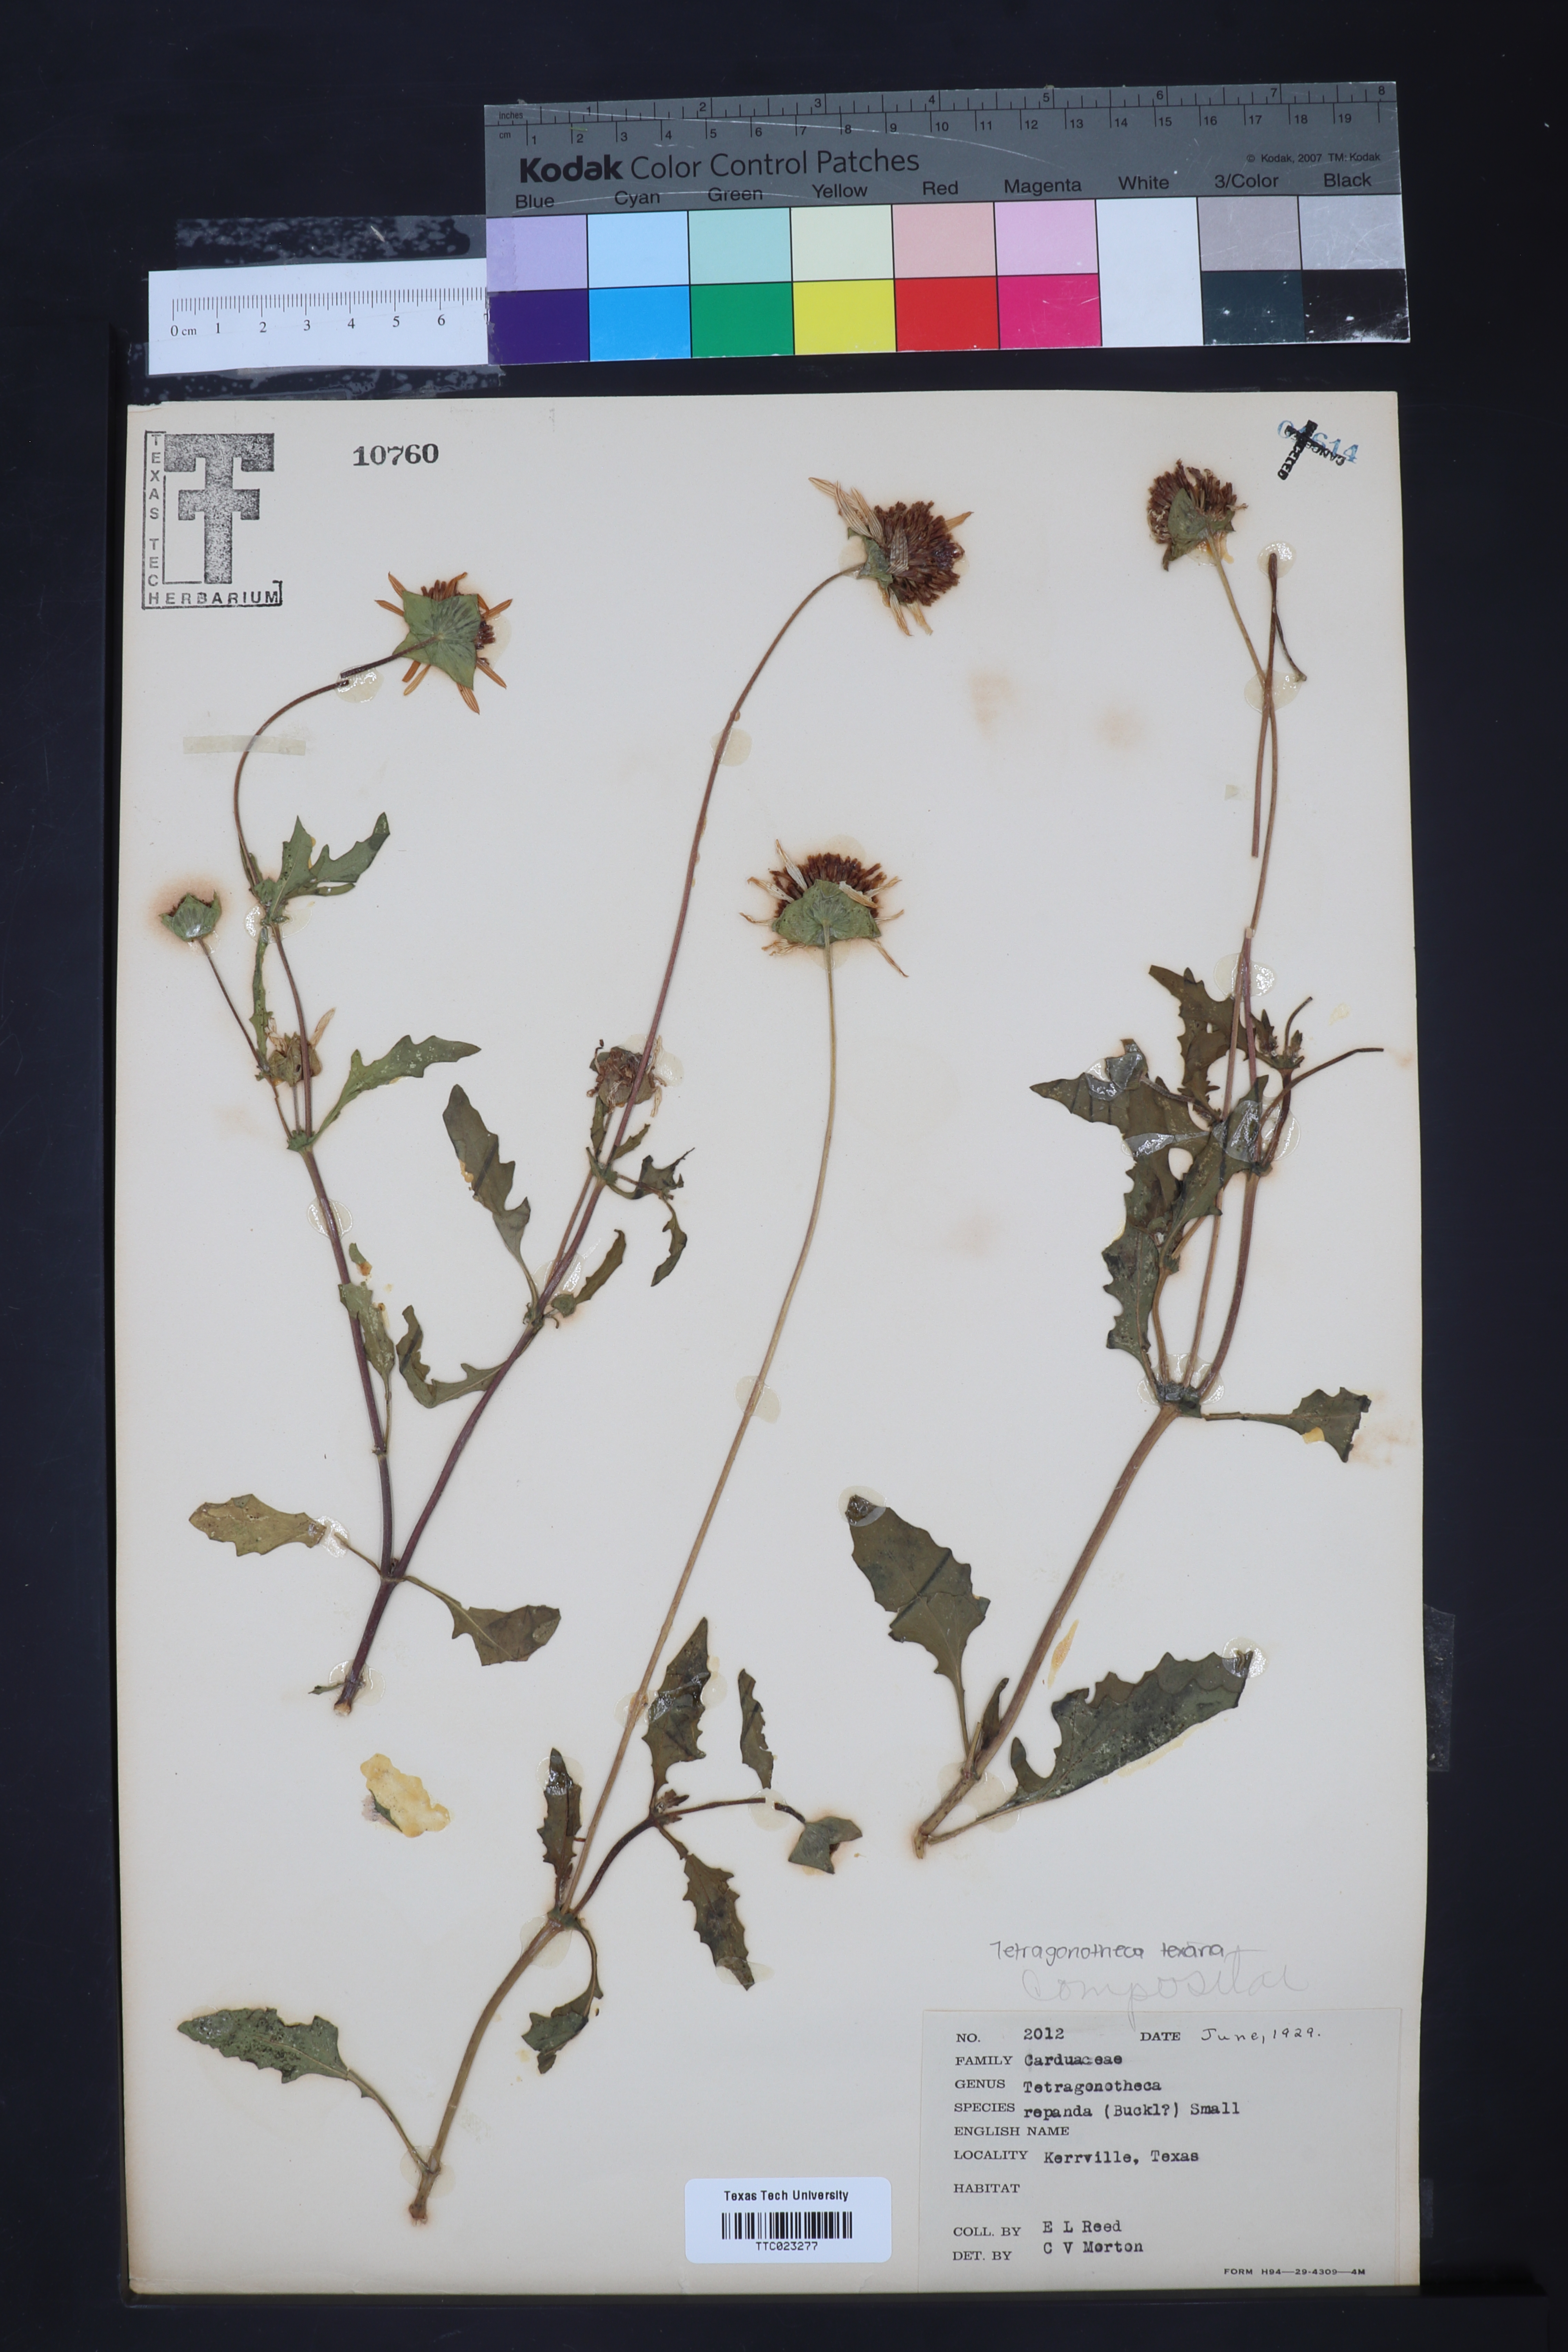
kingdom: Plantae
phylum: Tracheophyta
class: Magnoliopsida
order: Asterales
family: Asteraceae
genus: Tetragonotheca
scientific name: Tetragonotheca repanda
